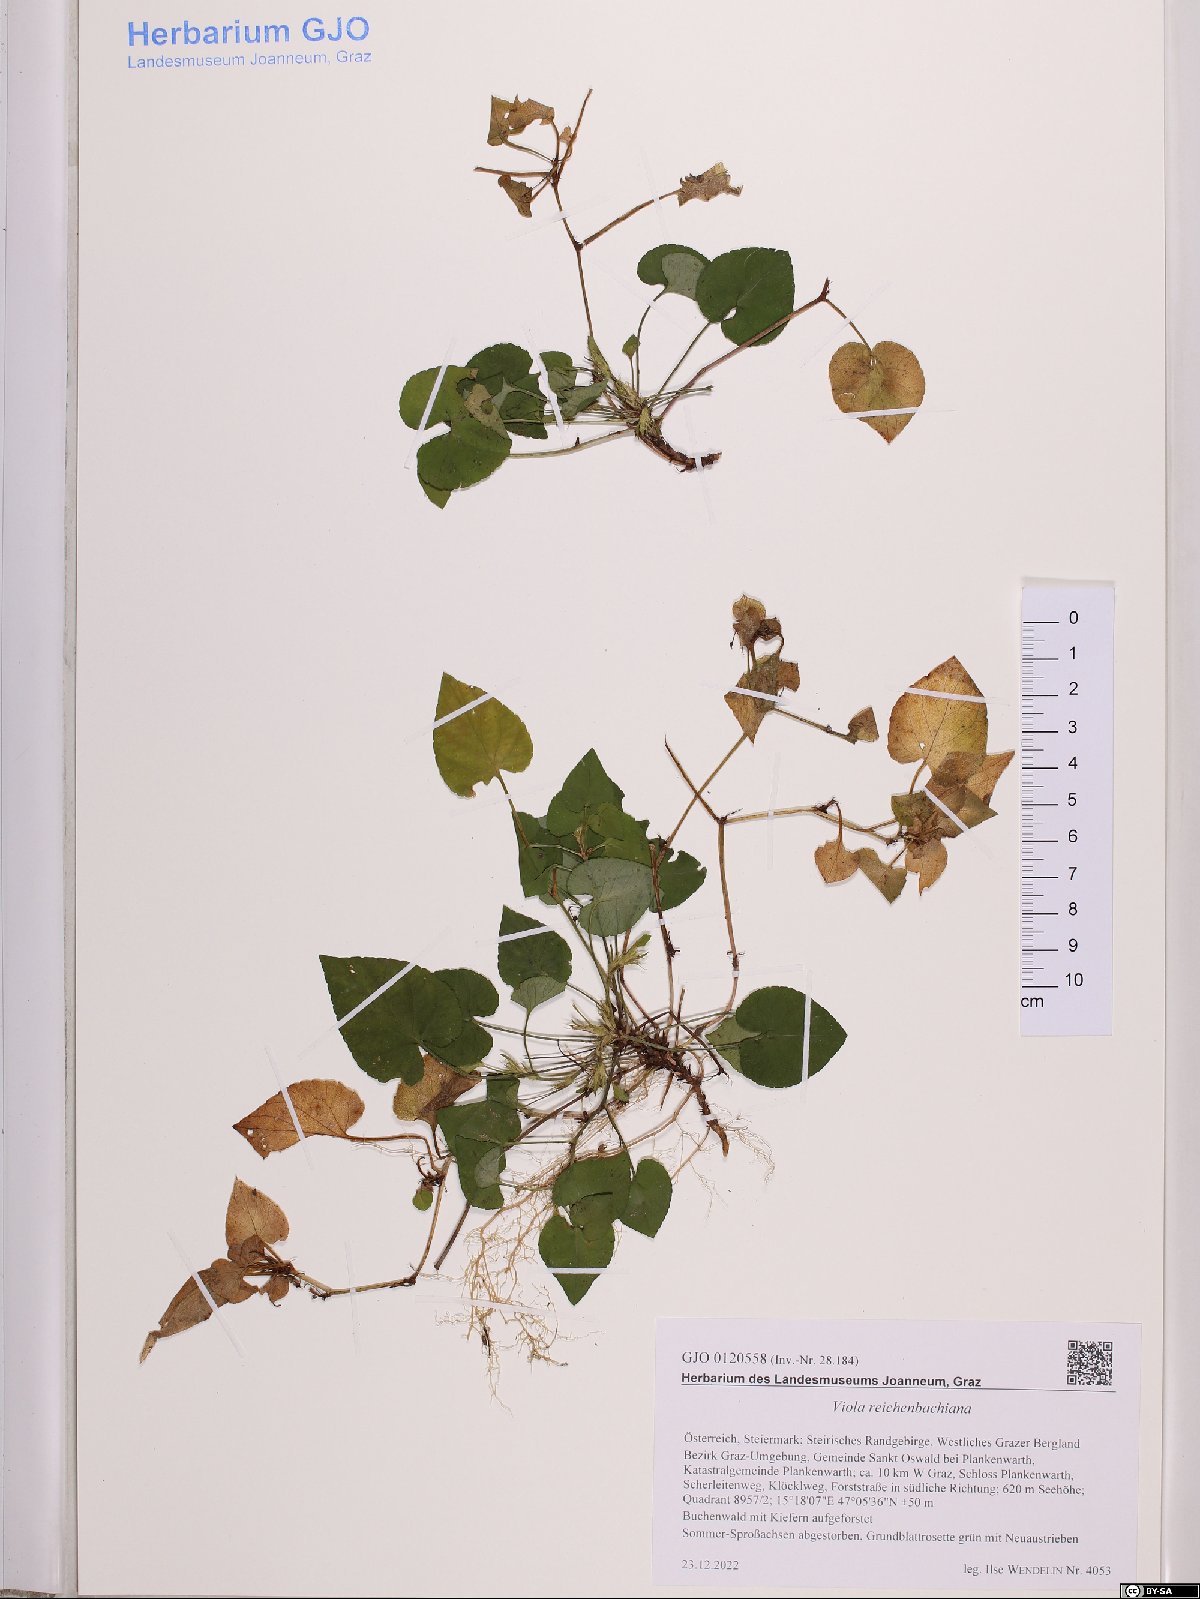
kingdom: Plantae
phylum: Tracheophyta
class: Magnoliopsida
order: Malpighiales
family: Violaceae
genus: Viola
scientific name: Viola reichenbachiana
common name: Early dog-violet
